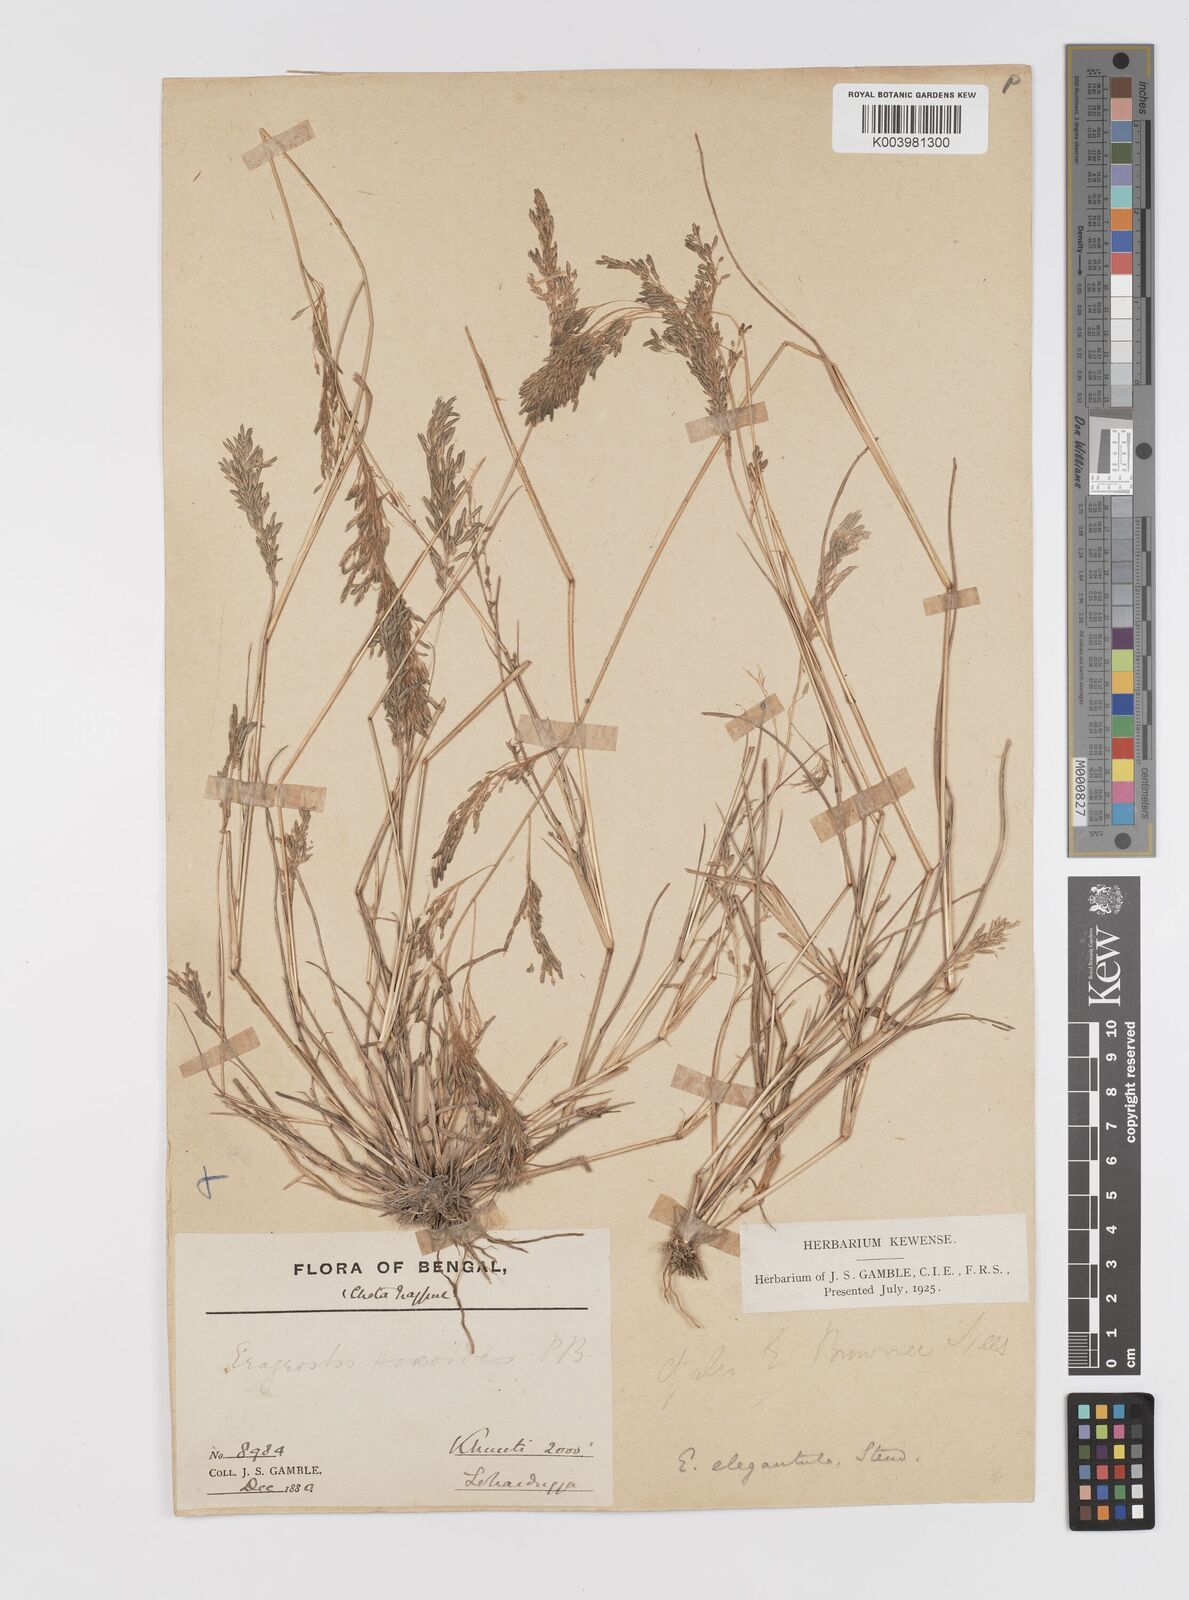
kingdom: Plantae
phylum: Tracheophyta
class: Liliopsida
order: Poales
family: Poaceae
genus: Eragrostis
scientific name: Eragrostis gangetica
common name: Slimflower lovegrass
